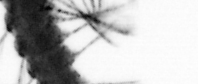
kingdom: Animalia
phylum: Annelida
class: Polychaeta
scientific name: Polychaeta
